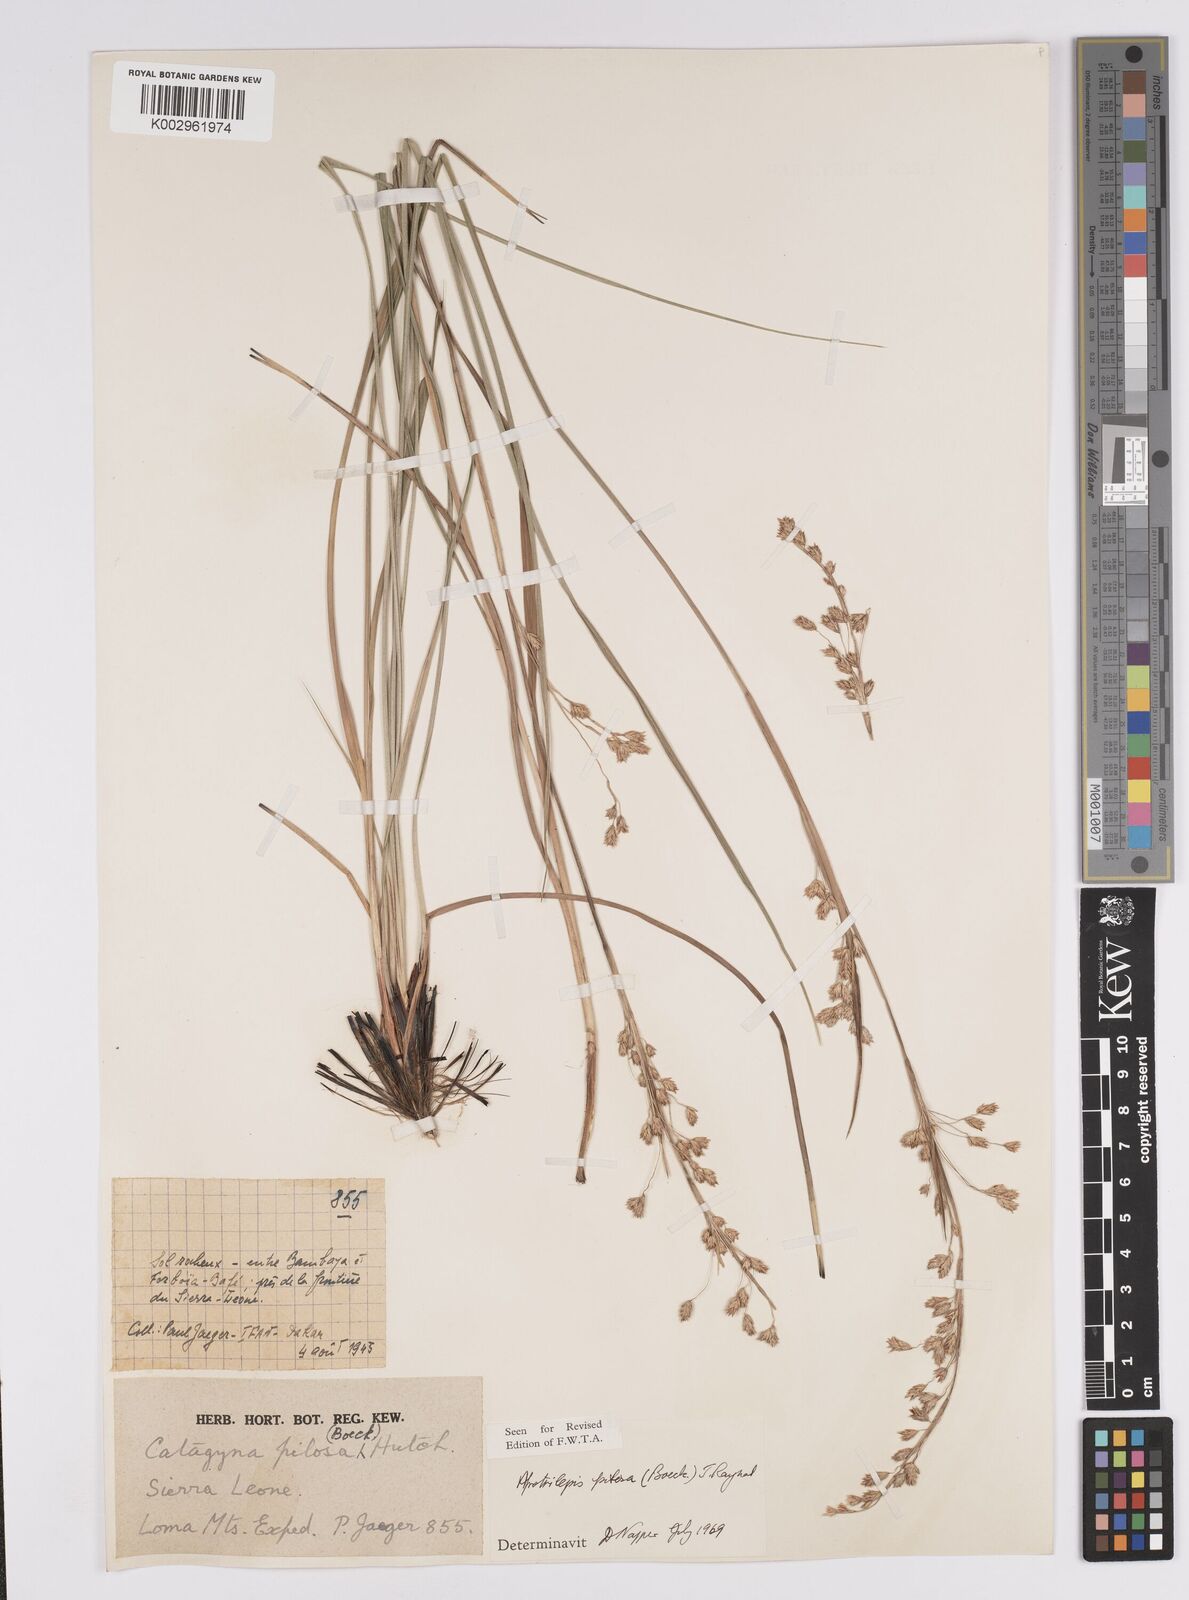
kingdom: Plantae
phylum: Tracheophyta
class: Liliopsida
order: Poales
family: Cyperaceae
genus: Afrotrilepis
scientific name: Afrotrilepis pilosa
